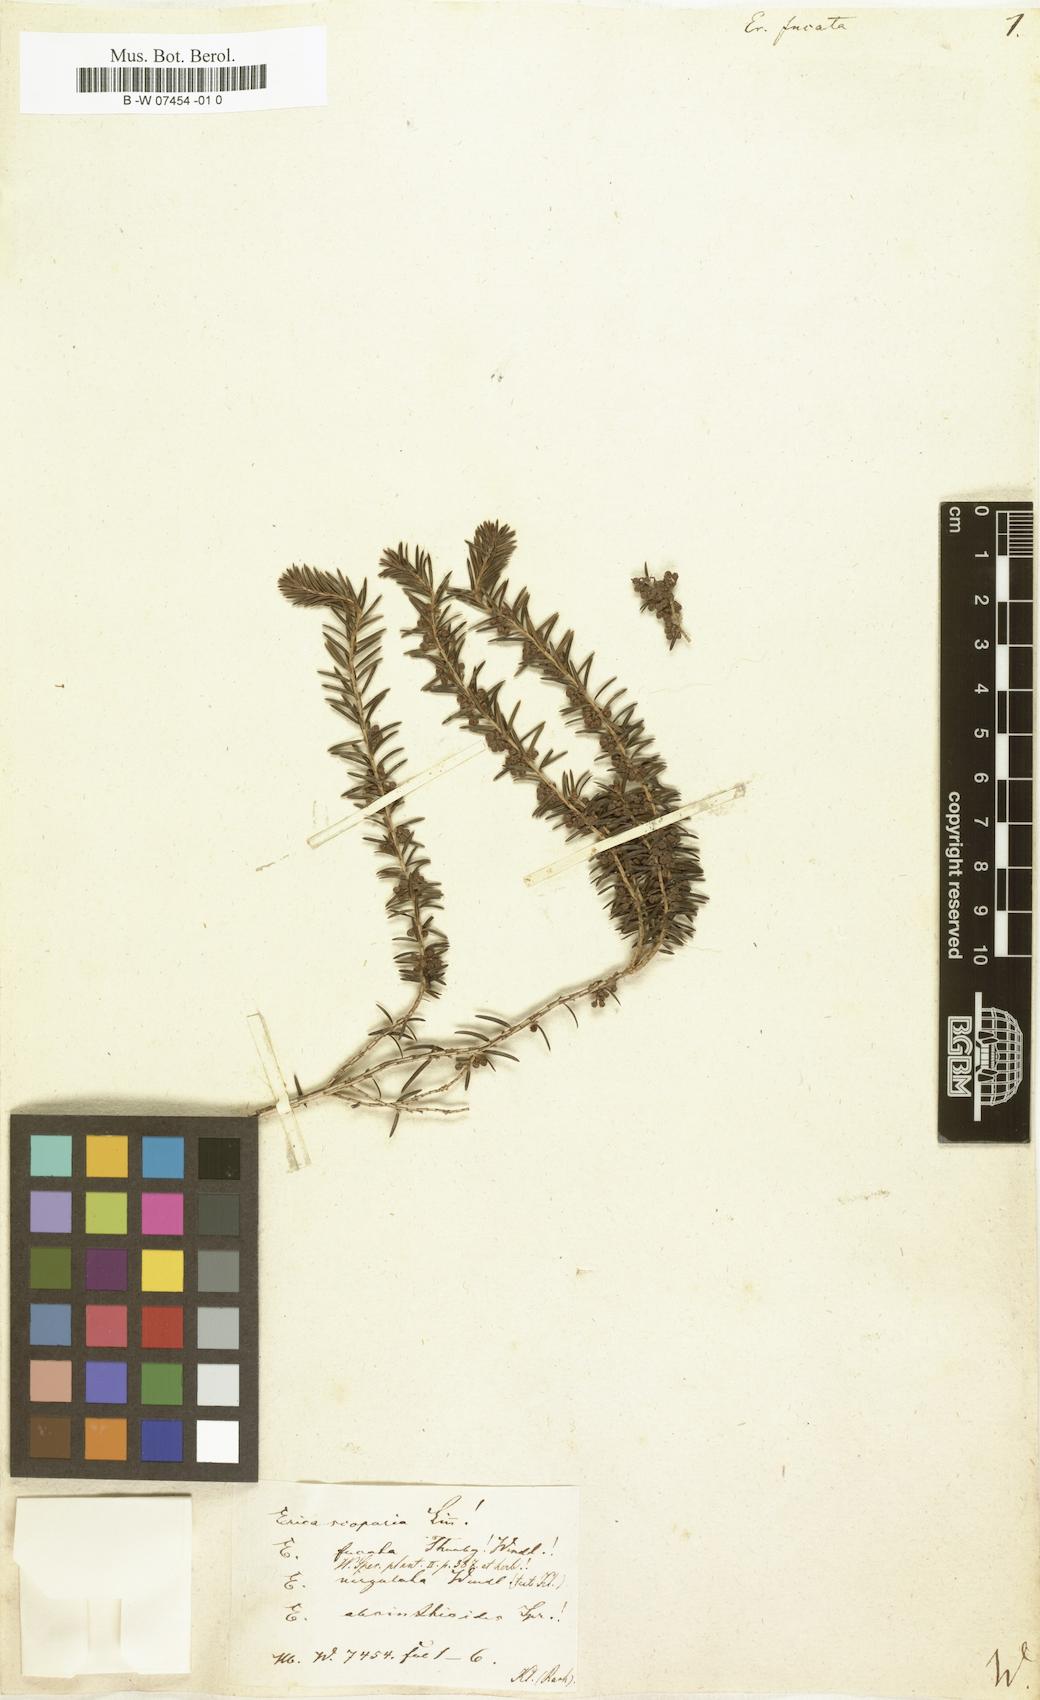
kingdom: Plantae
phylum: Tracheophyta
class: Magnoliopsida
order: Ericales
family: Ericaceae
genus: Erica
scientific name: Erica scoparia
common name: Green heather
